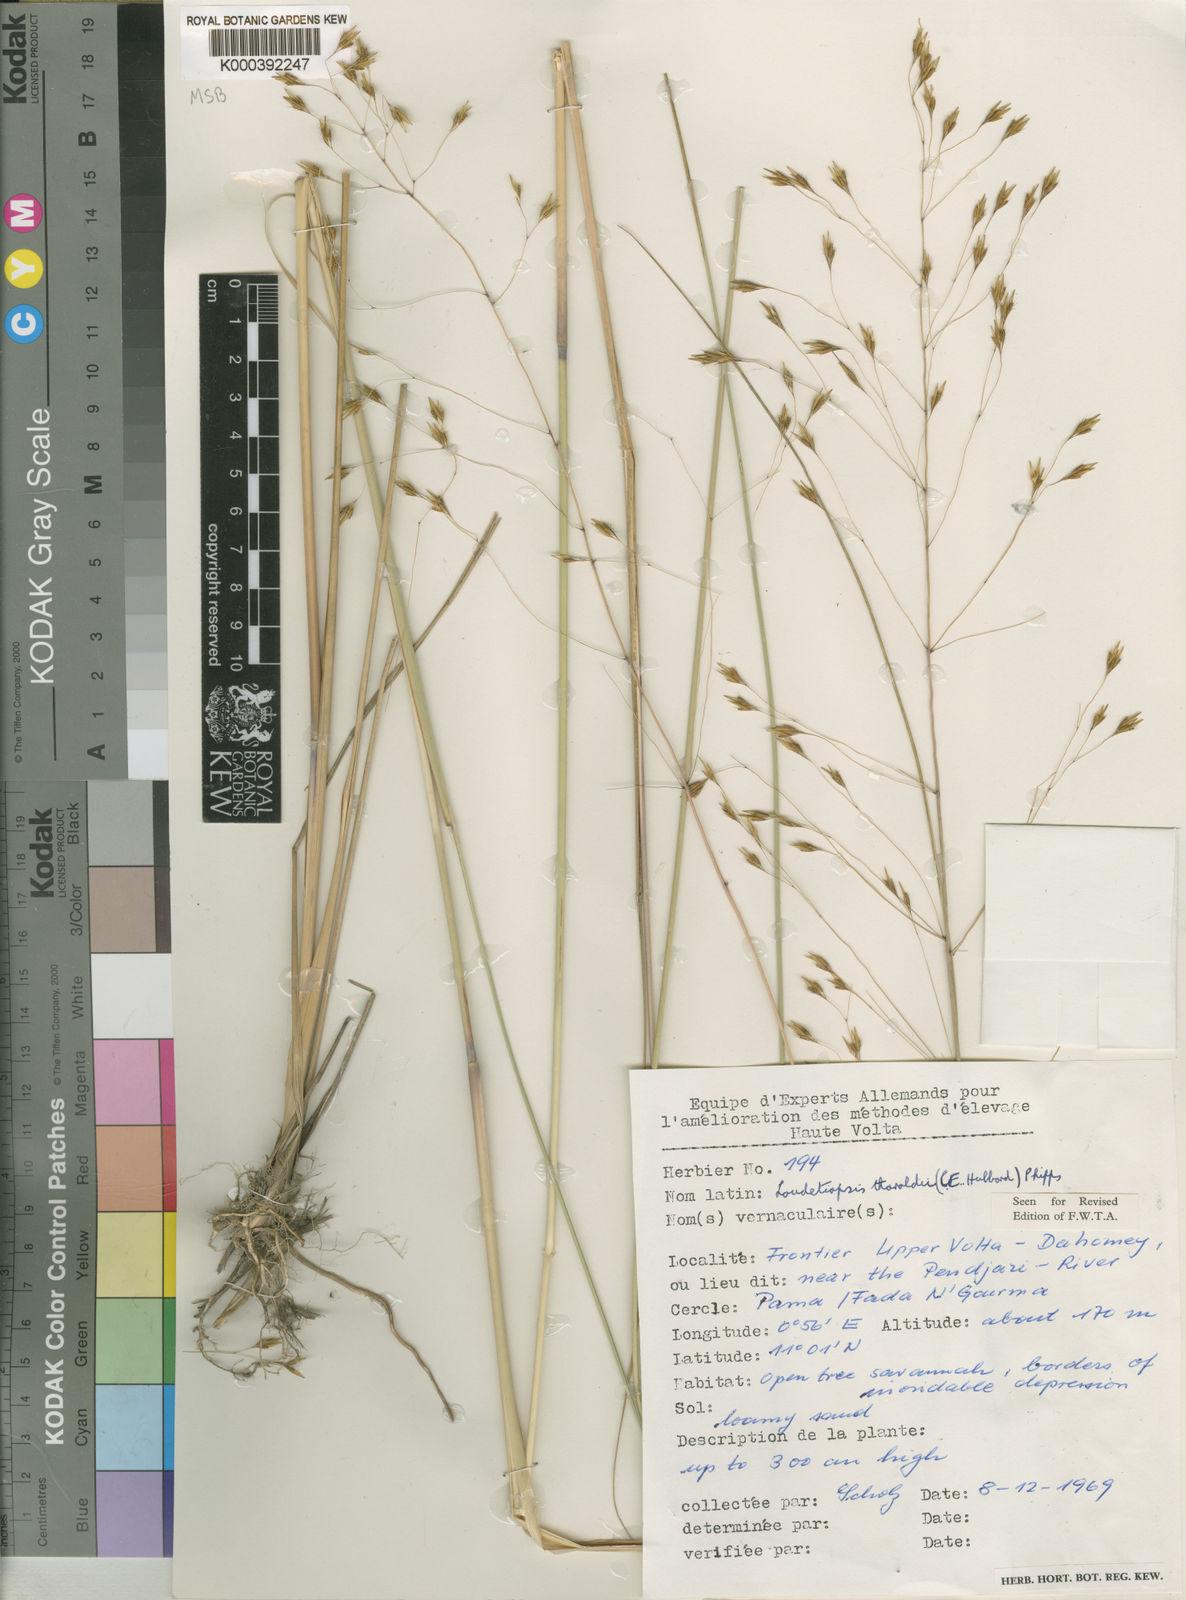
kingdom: Plantae
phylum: Tracheophyta
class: Liliopsida
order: Poales
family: Poaceae
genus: Loudetiopsis
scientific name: Loudetiopsis thoroldii
